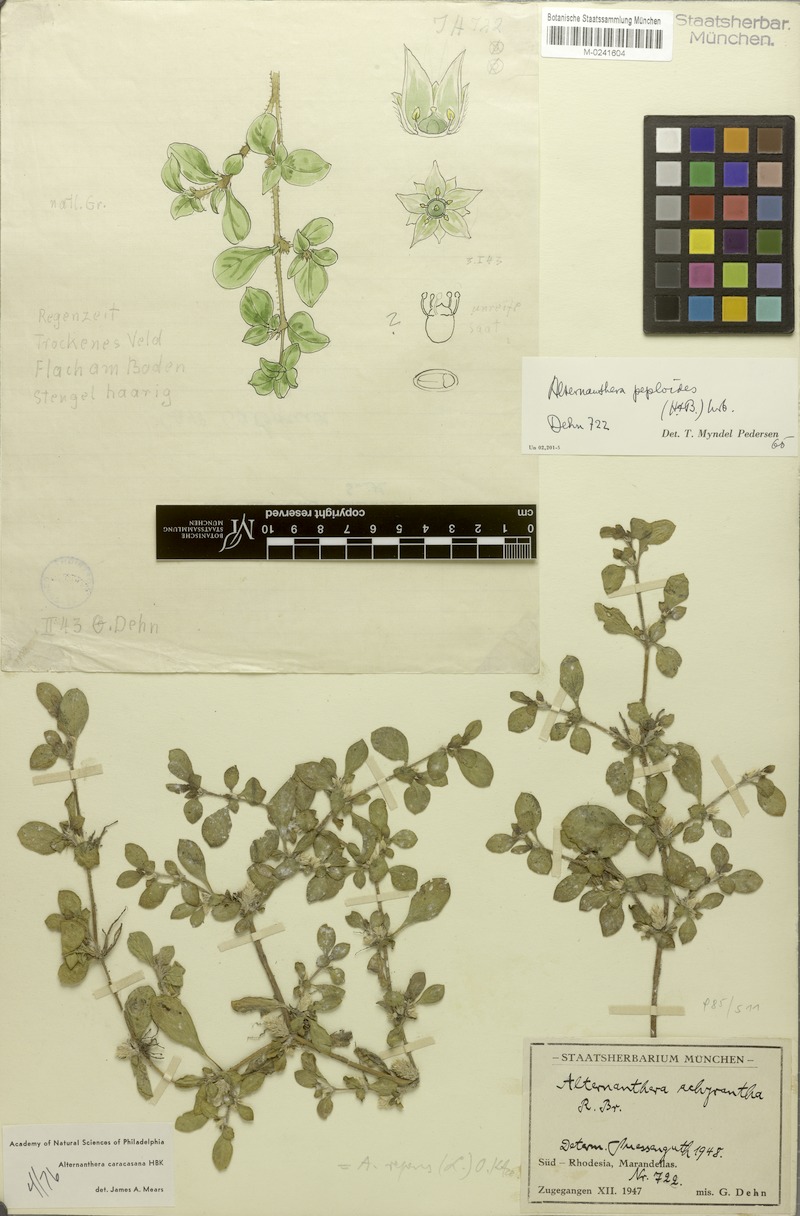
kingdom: Plantae
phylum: Tracheophyta
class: Magnoliopsida
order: Caryophyllales
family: Amaranthaceae
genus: Alternanthera
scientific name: Alternanthera caracasana
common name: Washerwoman
